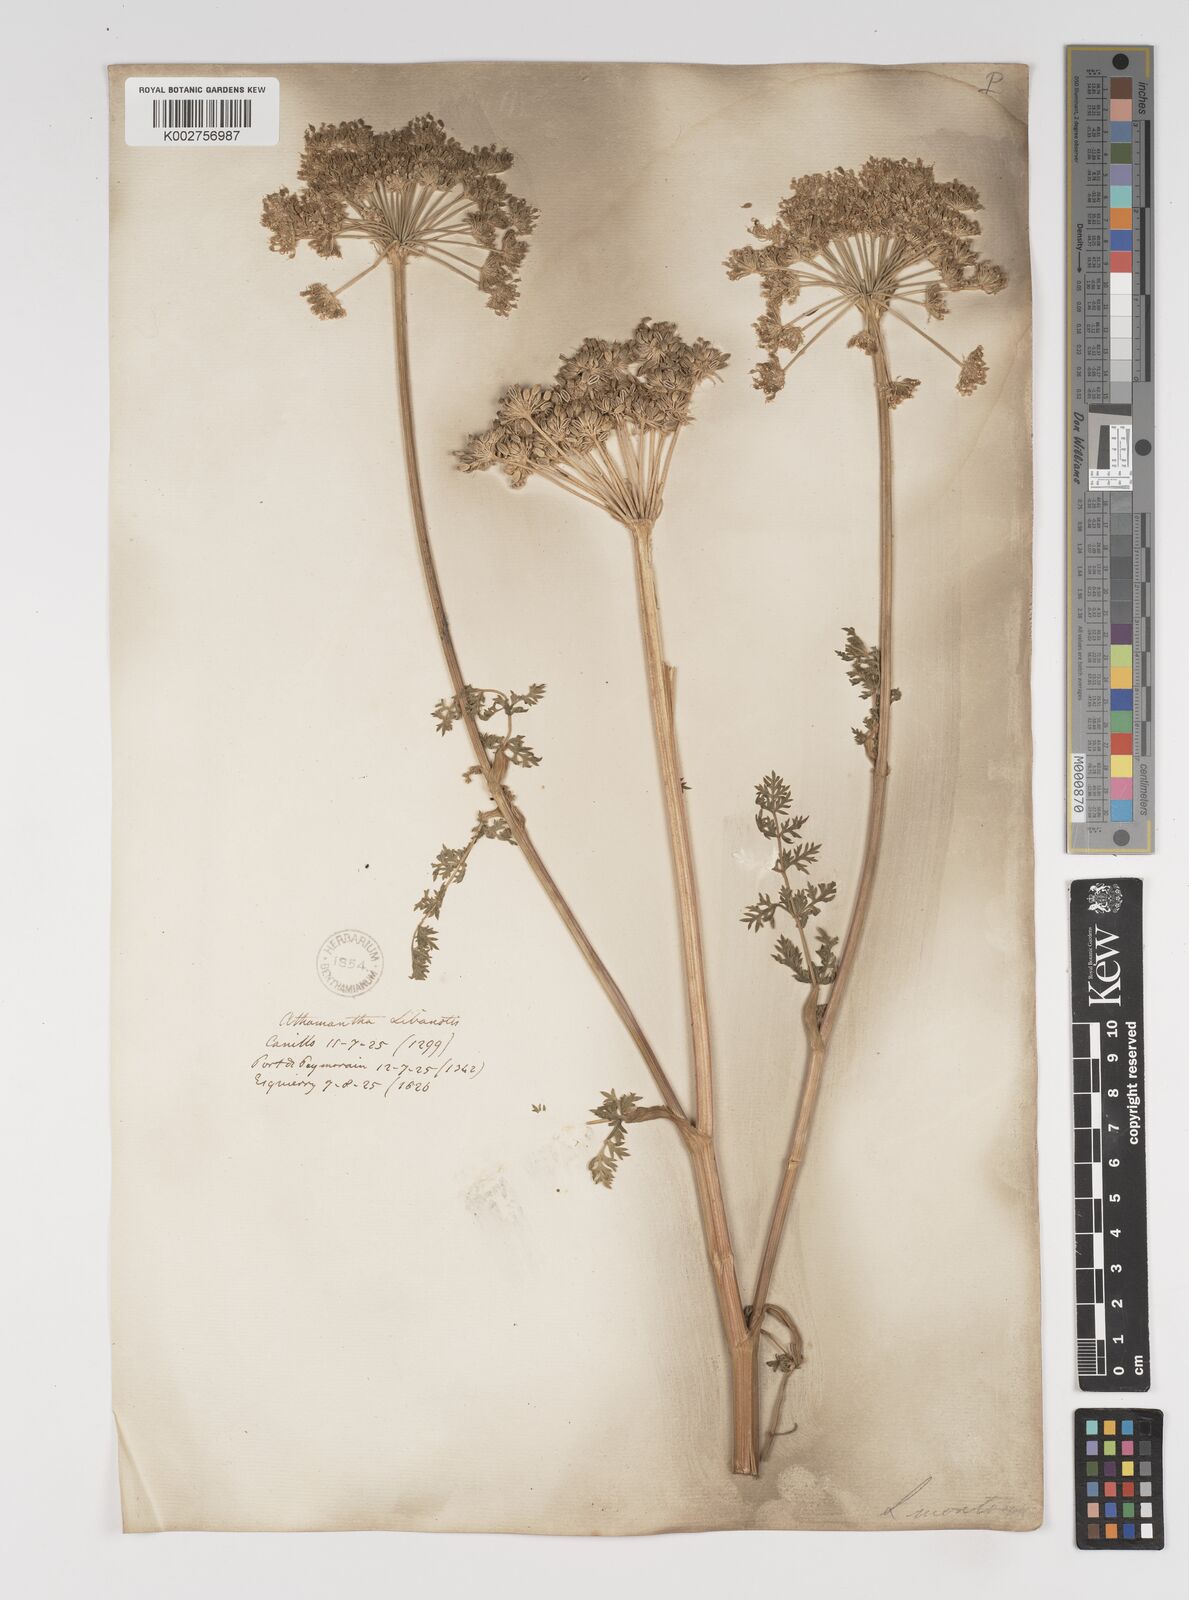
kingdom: Plantae
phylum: Tracheophyta
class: Magnoliopsida
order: Apiales
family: Apiaceae
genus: Seseli
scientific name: Seseli libanotis
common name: Mooncarrot
